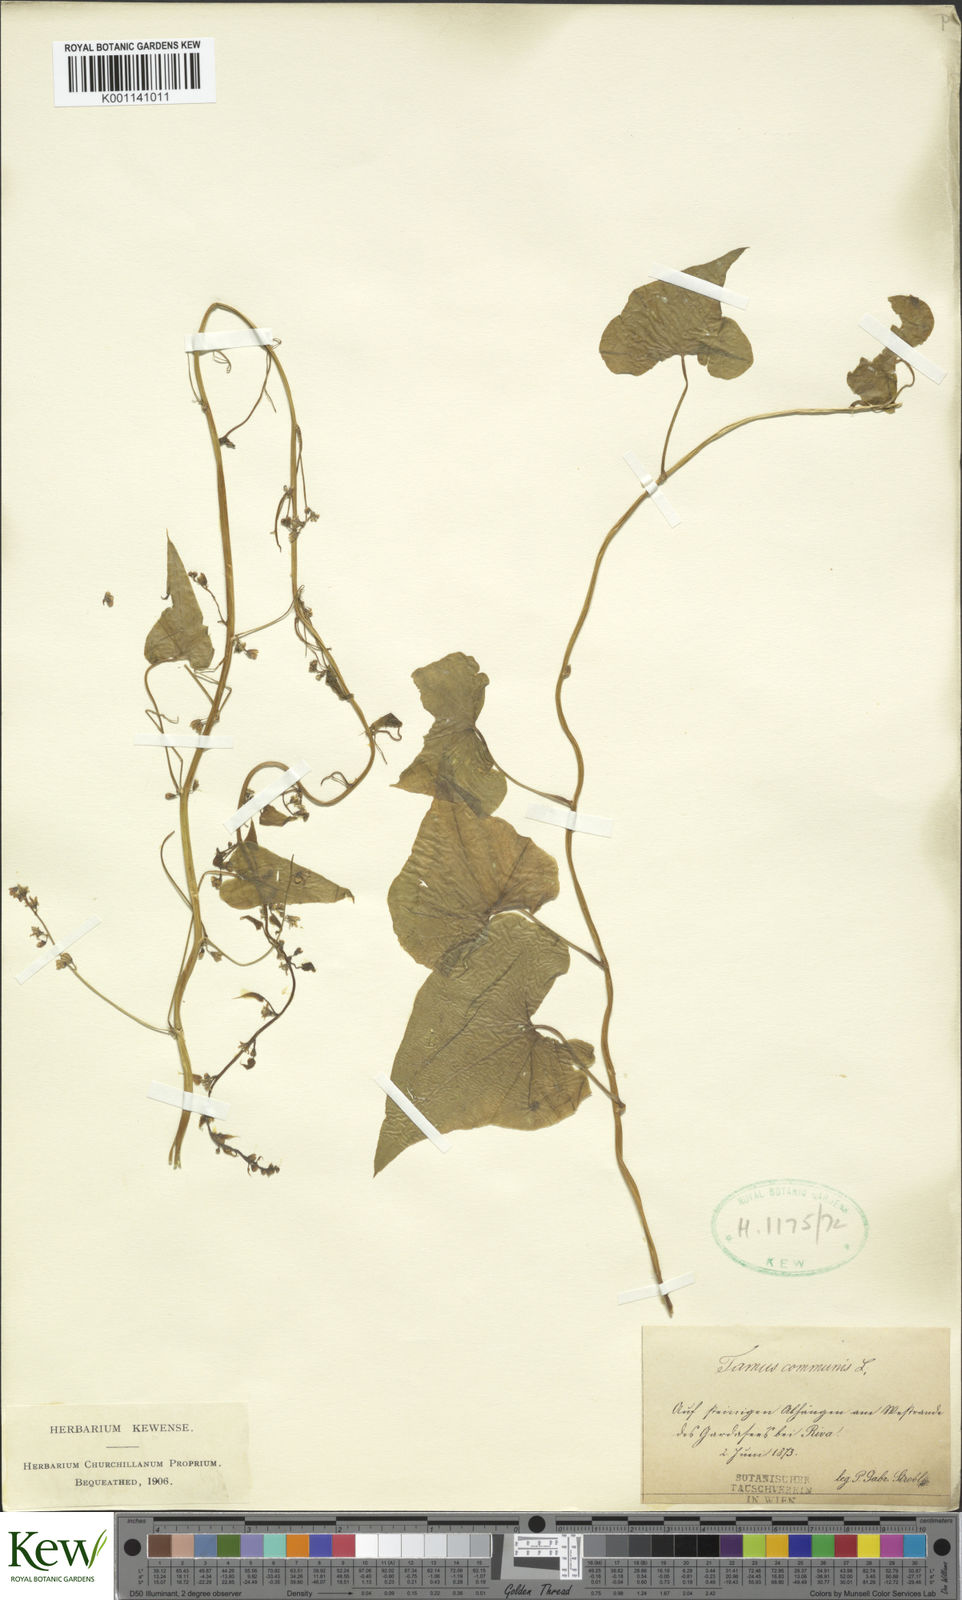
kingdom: Plantae
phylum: Tracheophyta
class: Liliopsida
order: Dioscoreales
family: Dioscoreaceae
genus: Dioscorea
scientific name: Dioscorea communis
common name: Black-bindweed
